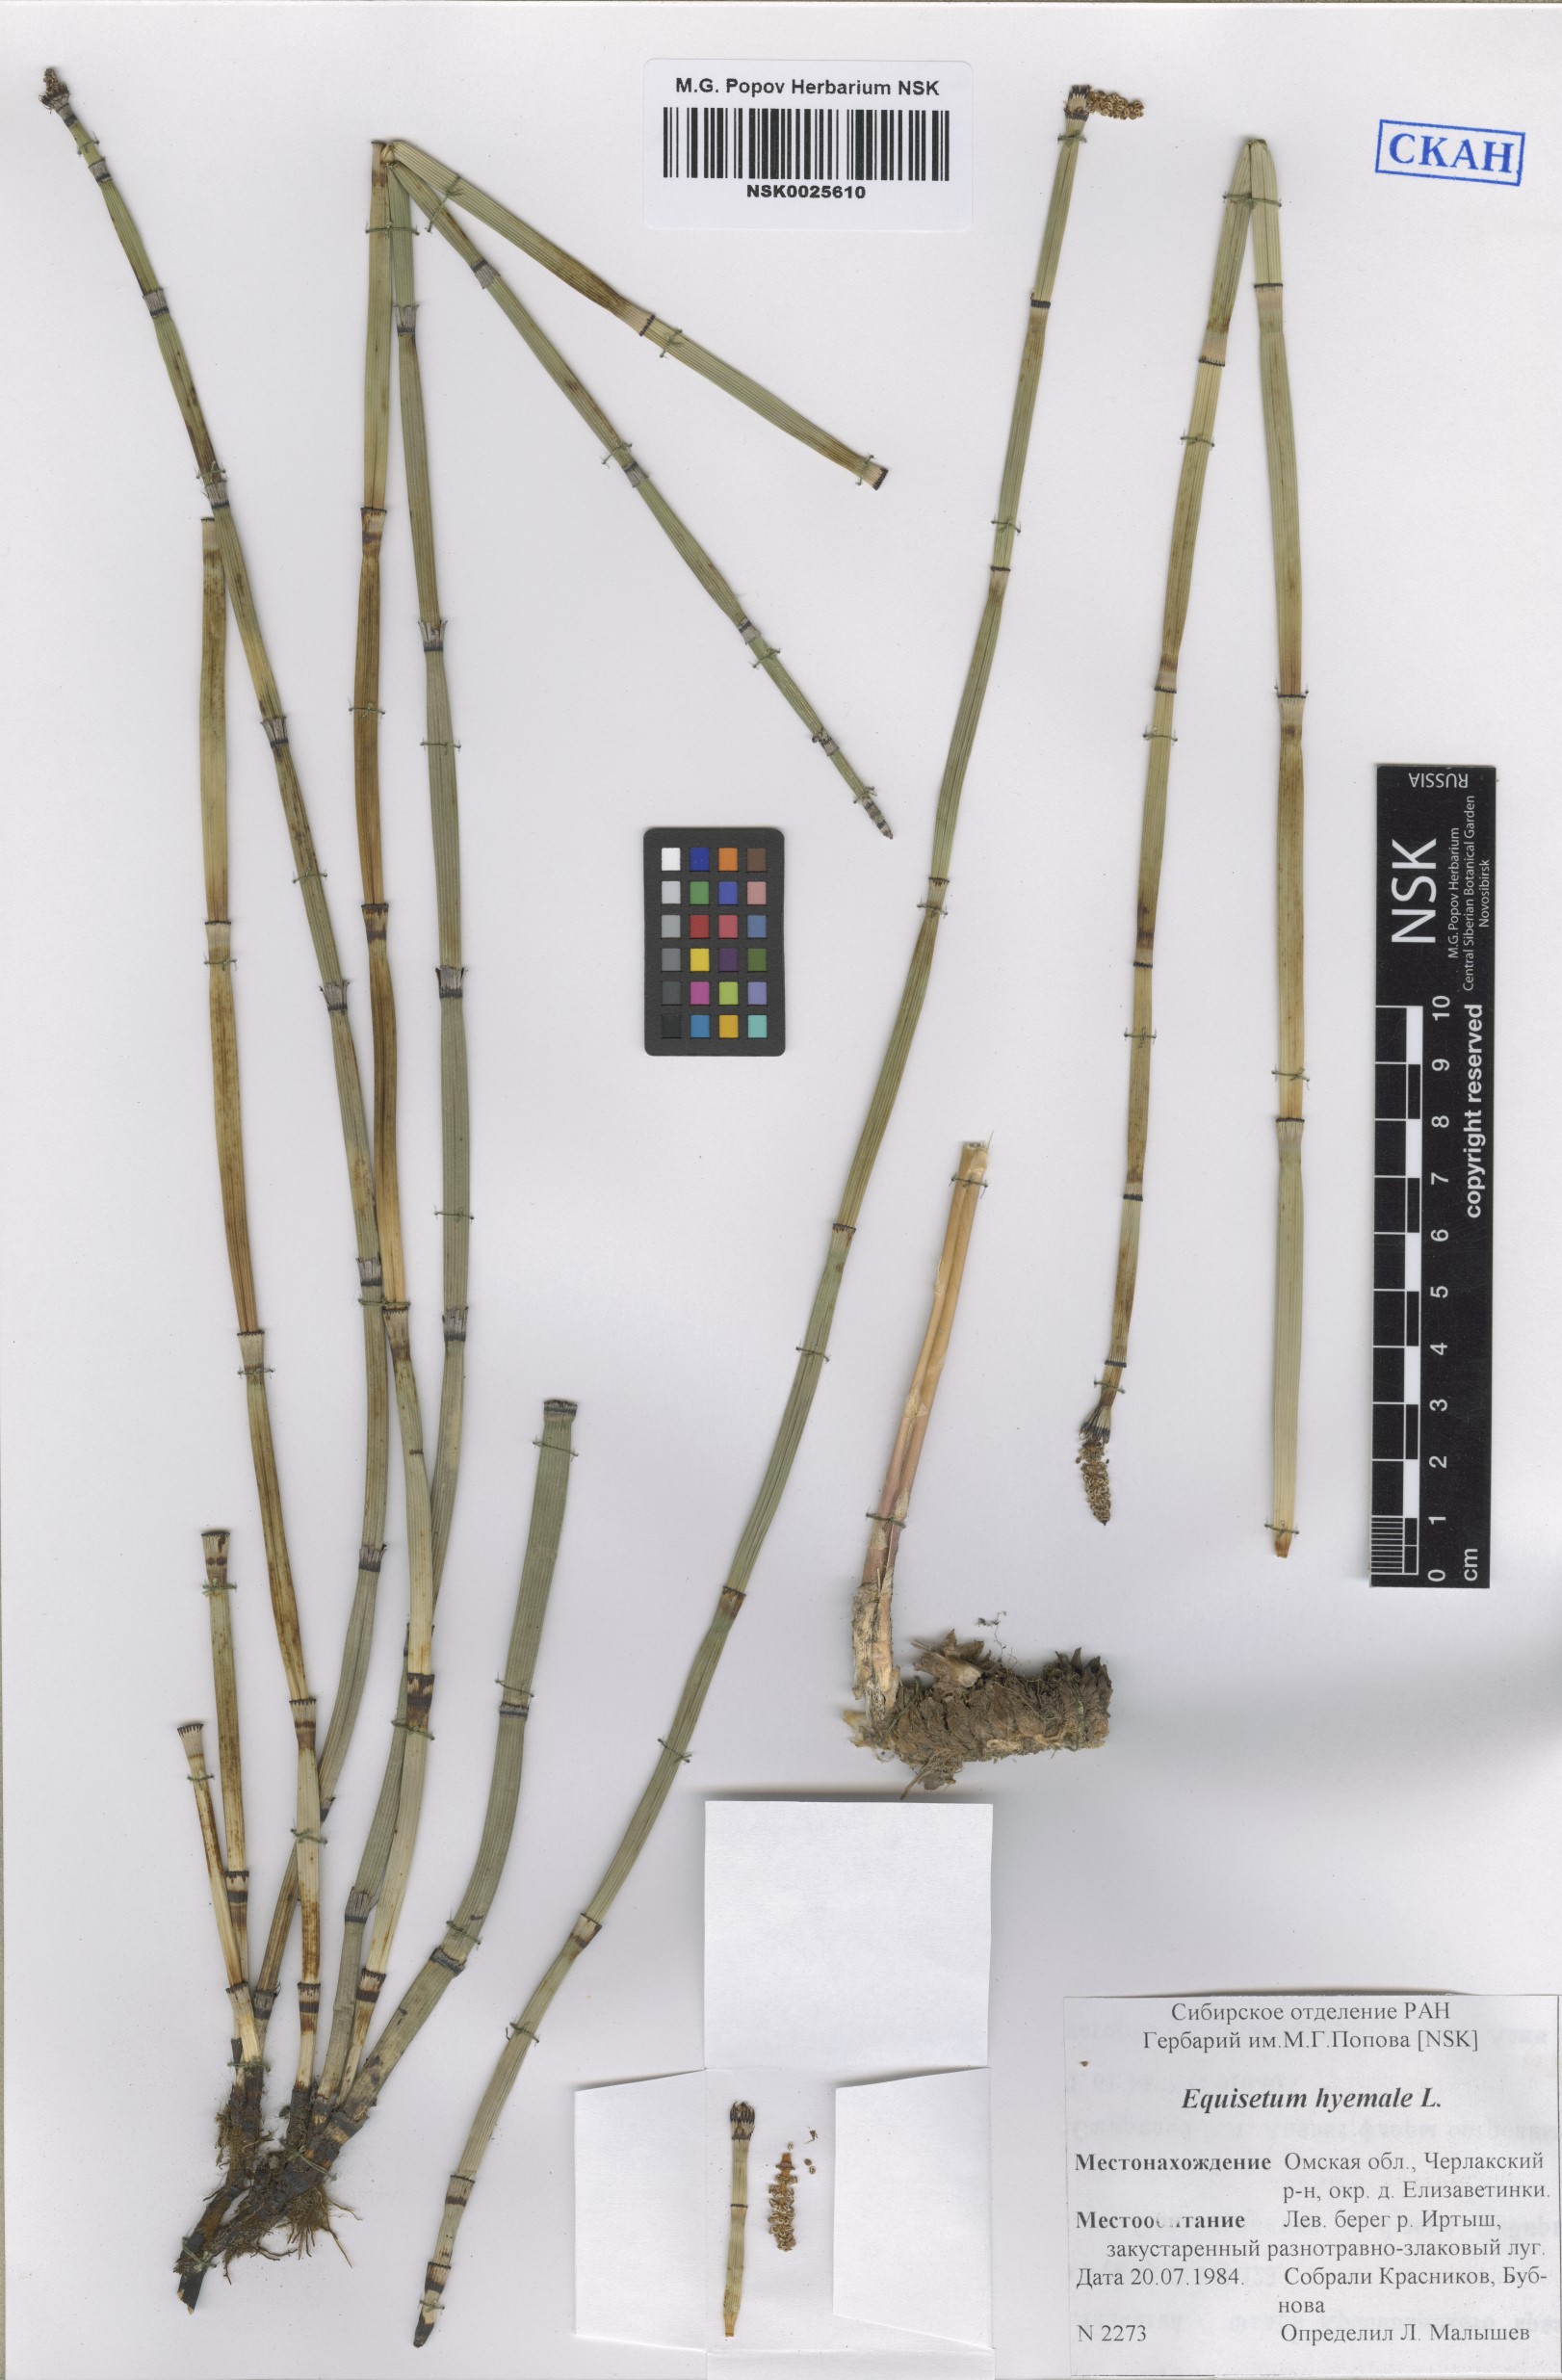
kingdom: Plantae
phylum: Tracheophyta
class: Polypodiopsida
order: Equisetales
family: Equisetaceae
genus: Equisetum
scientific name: Equisetum hyemale
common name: Rough horsetail
